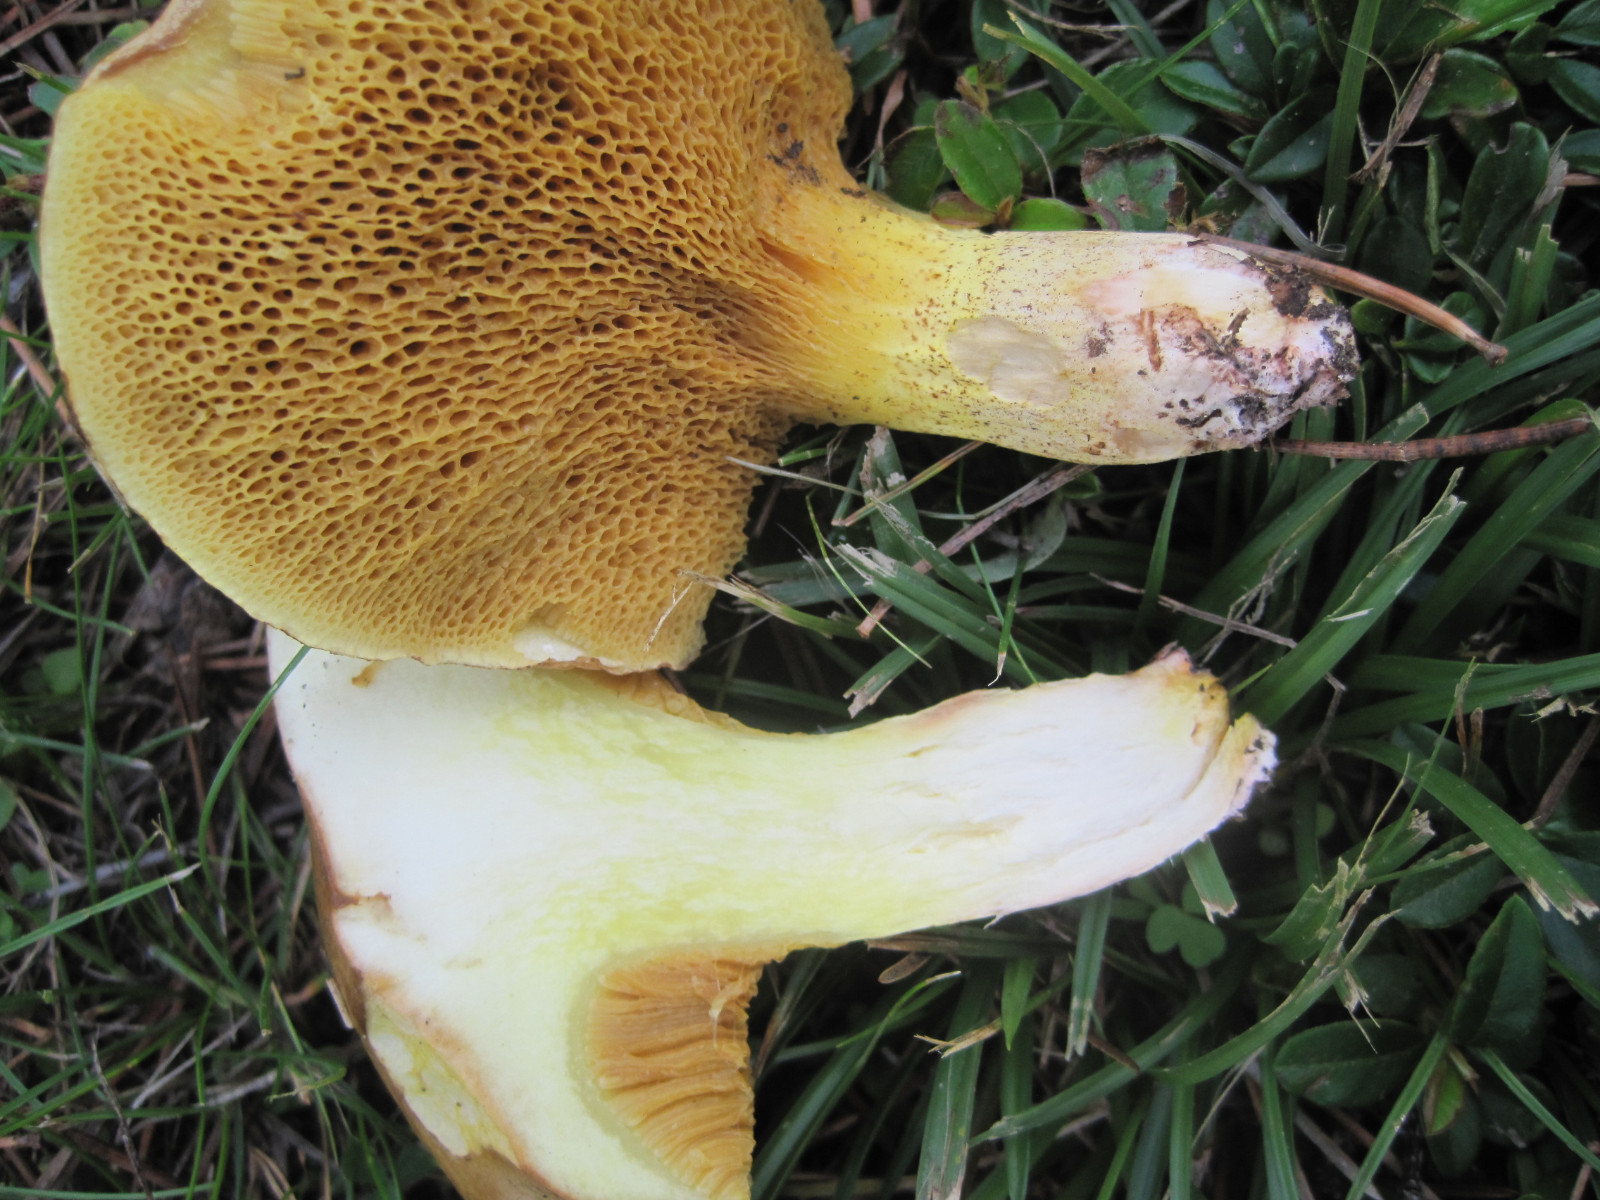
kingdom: Fungi
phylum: Basidiomycota
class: Agaricomycetes
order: Boletales
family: Suillaceae
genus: Suillus
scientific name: Suillus collinitus
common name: rosafodet slimrørhat
